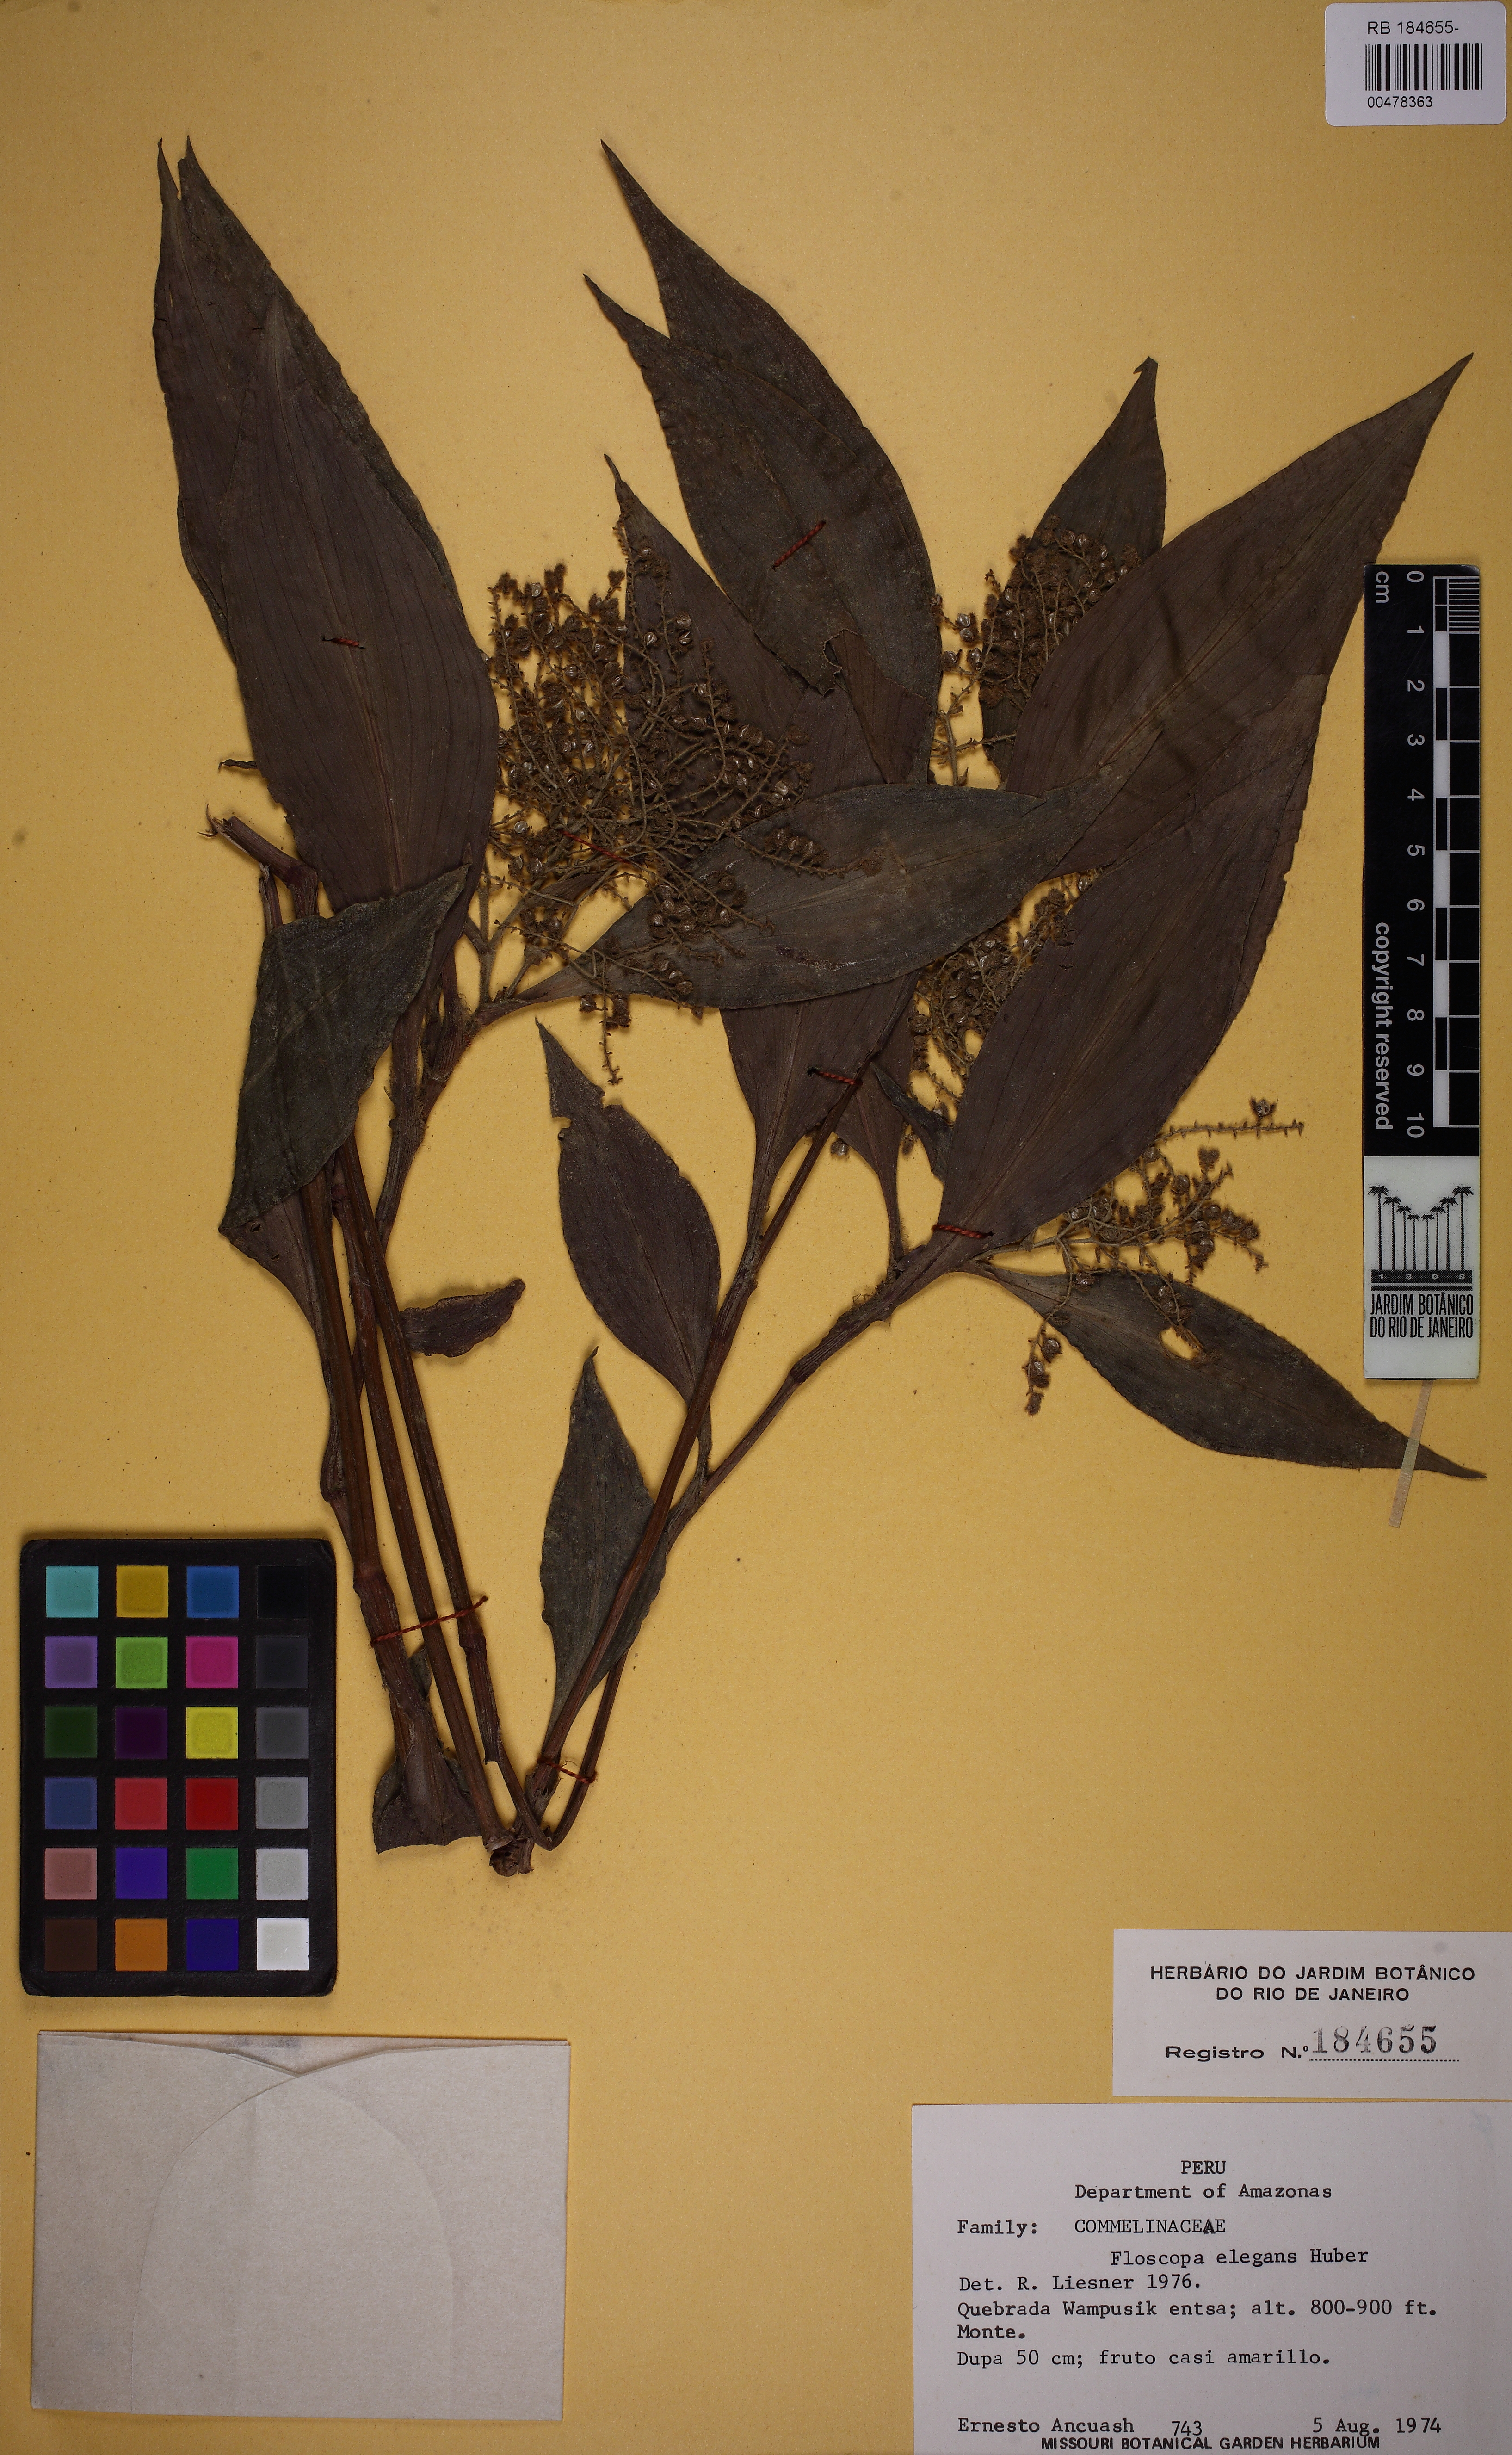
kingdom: Plantae
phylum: Tracheophyta
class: Liliopsida
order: Commelinales
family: Commelinaceae
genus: Floscopa
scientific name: Floscopa elegans
